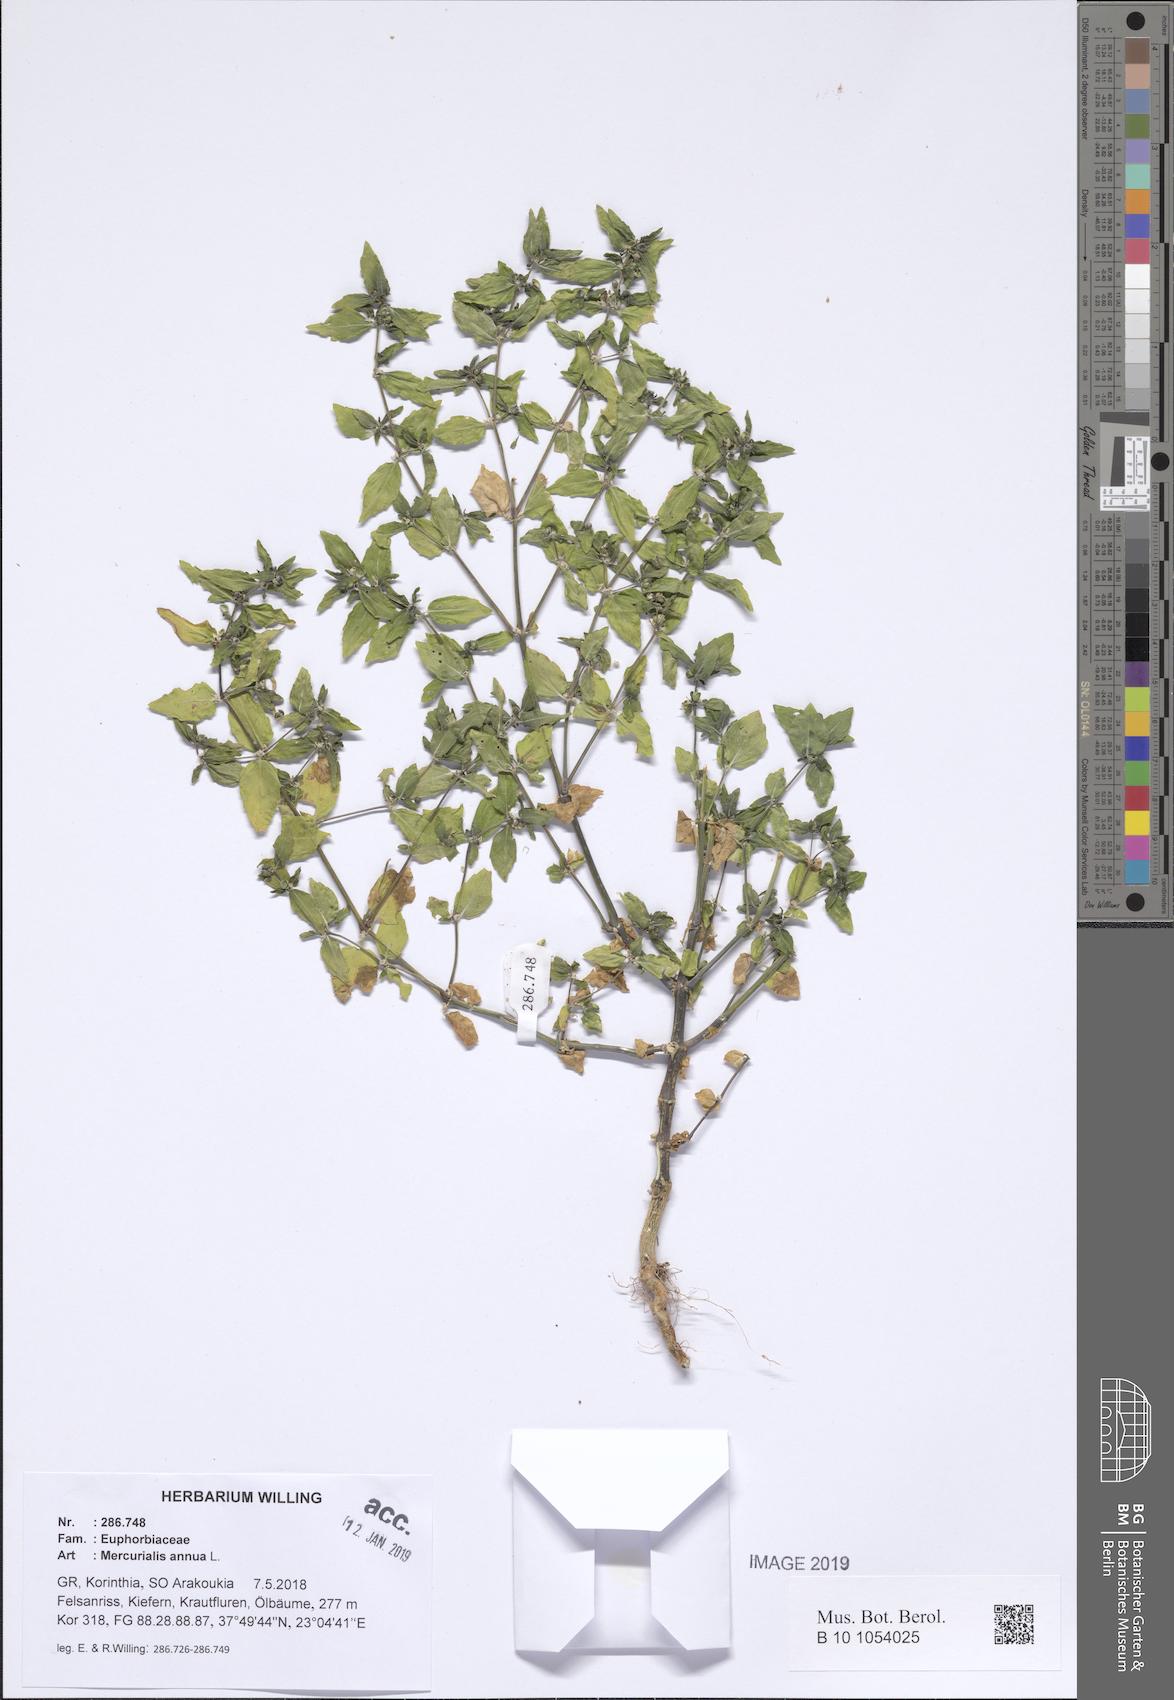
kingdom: Plantae
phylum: Tracheophyta
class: Magnoliopsida
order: Malpighiales
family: Euphorbiaceae
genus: Mercurialis
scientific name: Mercurialis annua
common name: Annual mercury
